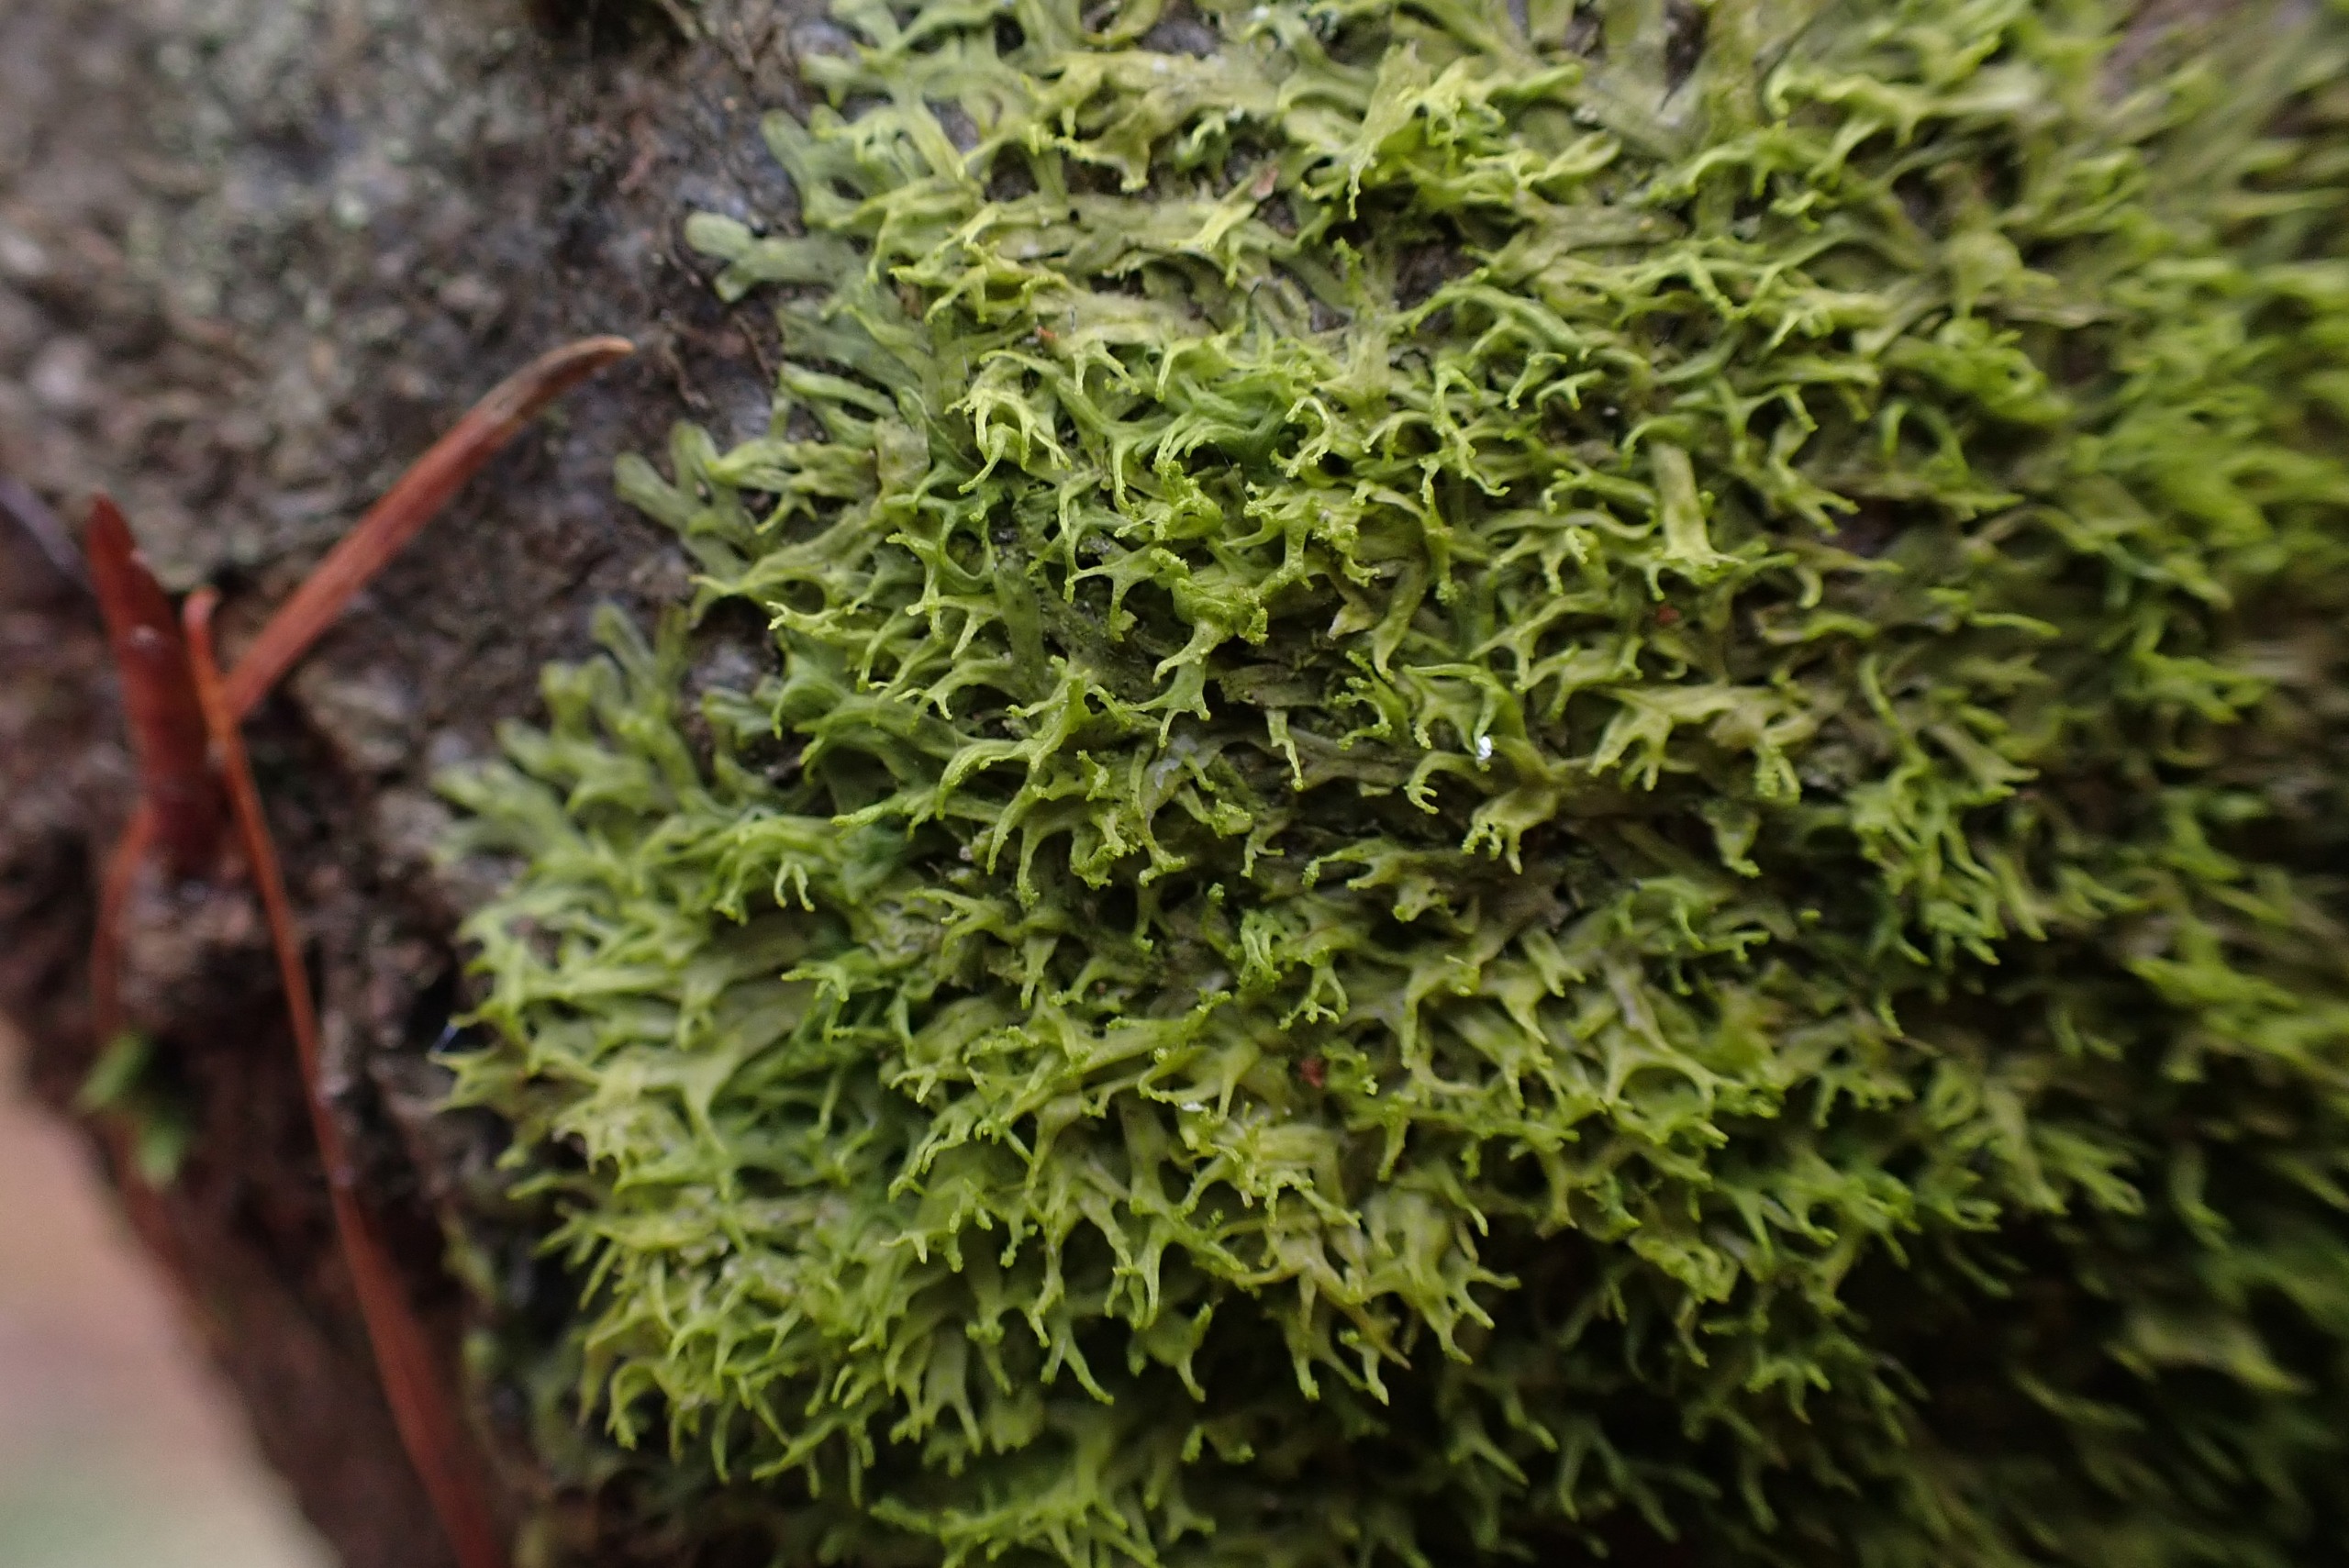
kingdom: Plantae
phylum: Marchantiophyta
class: Jungermanniopsida
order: Metzgeriales
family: Aneuraceae
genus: Riccardia
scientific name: Riccardia palmata
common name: Blågrøn gaffelløv
